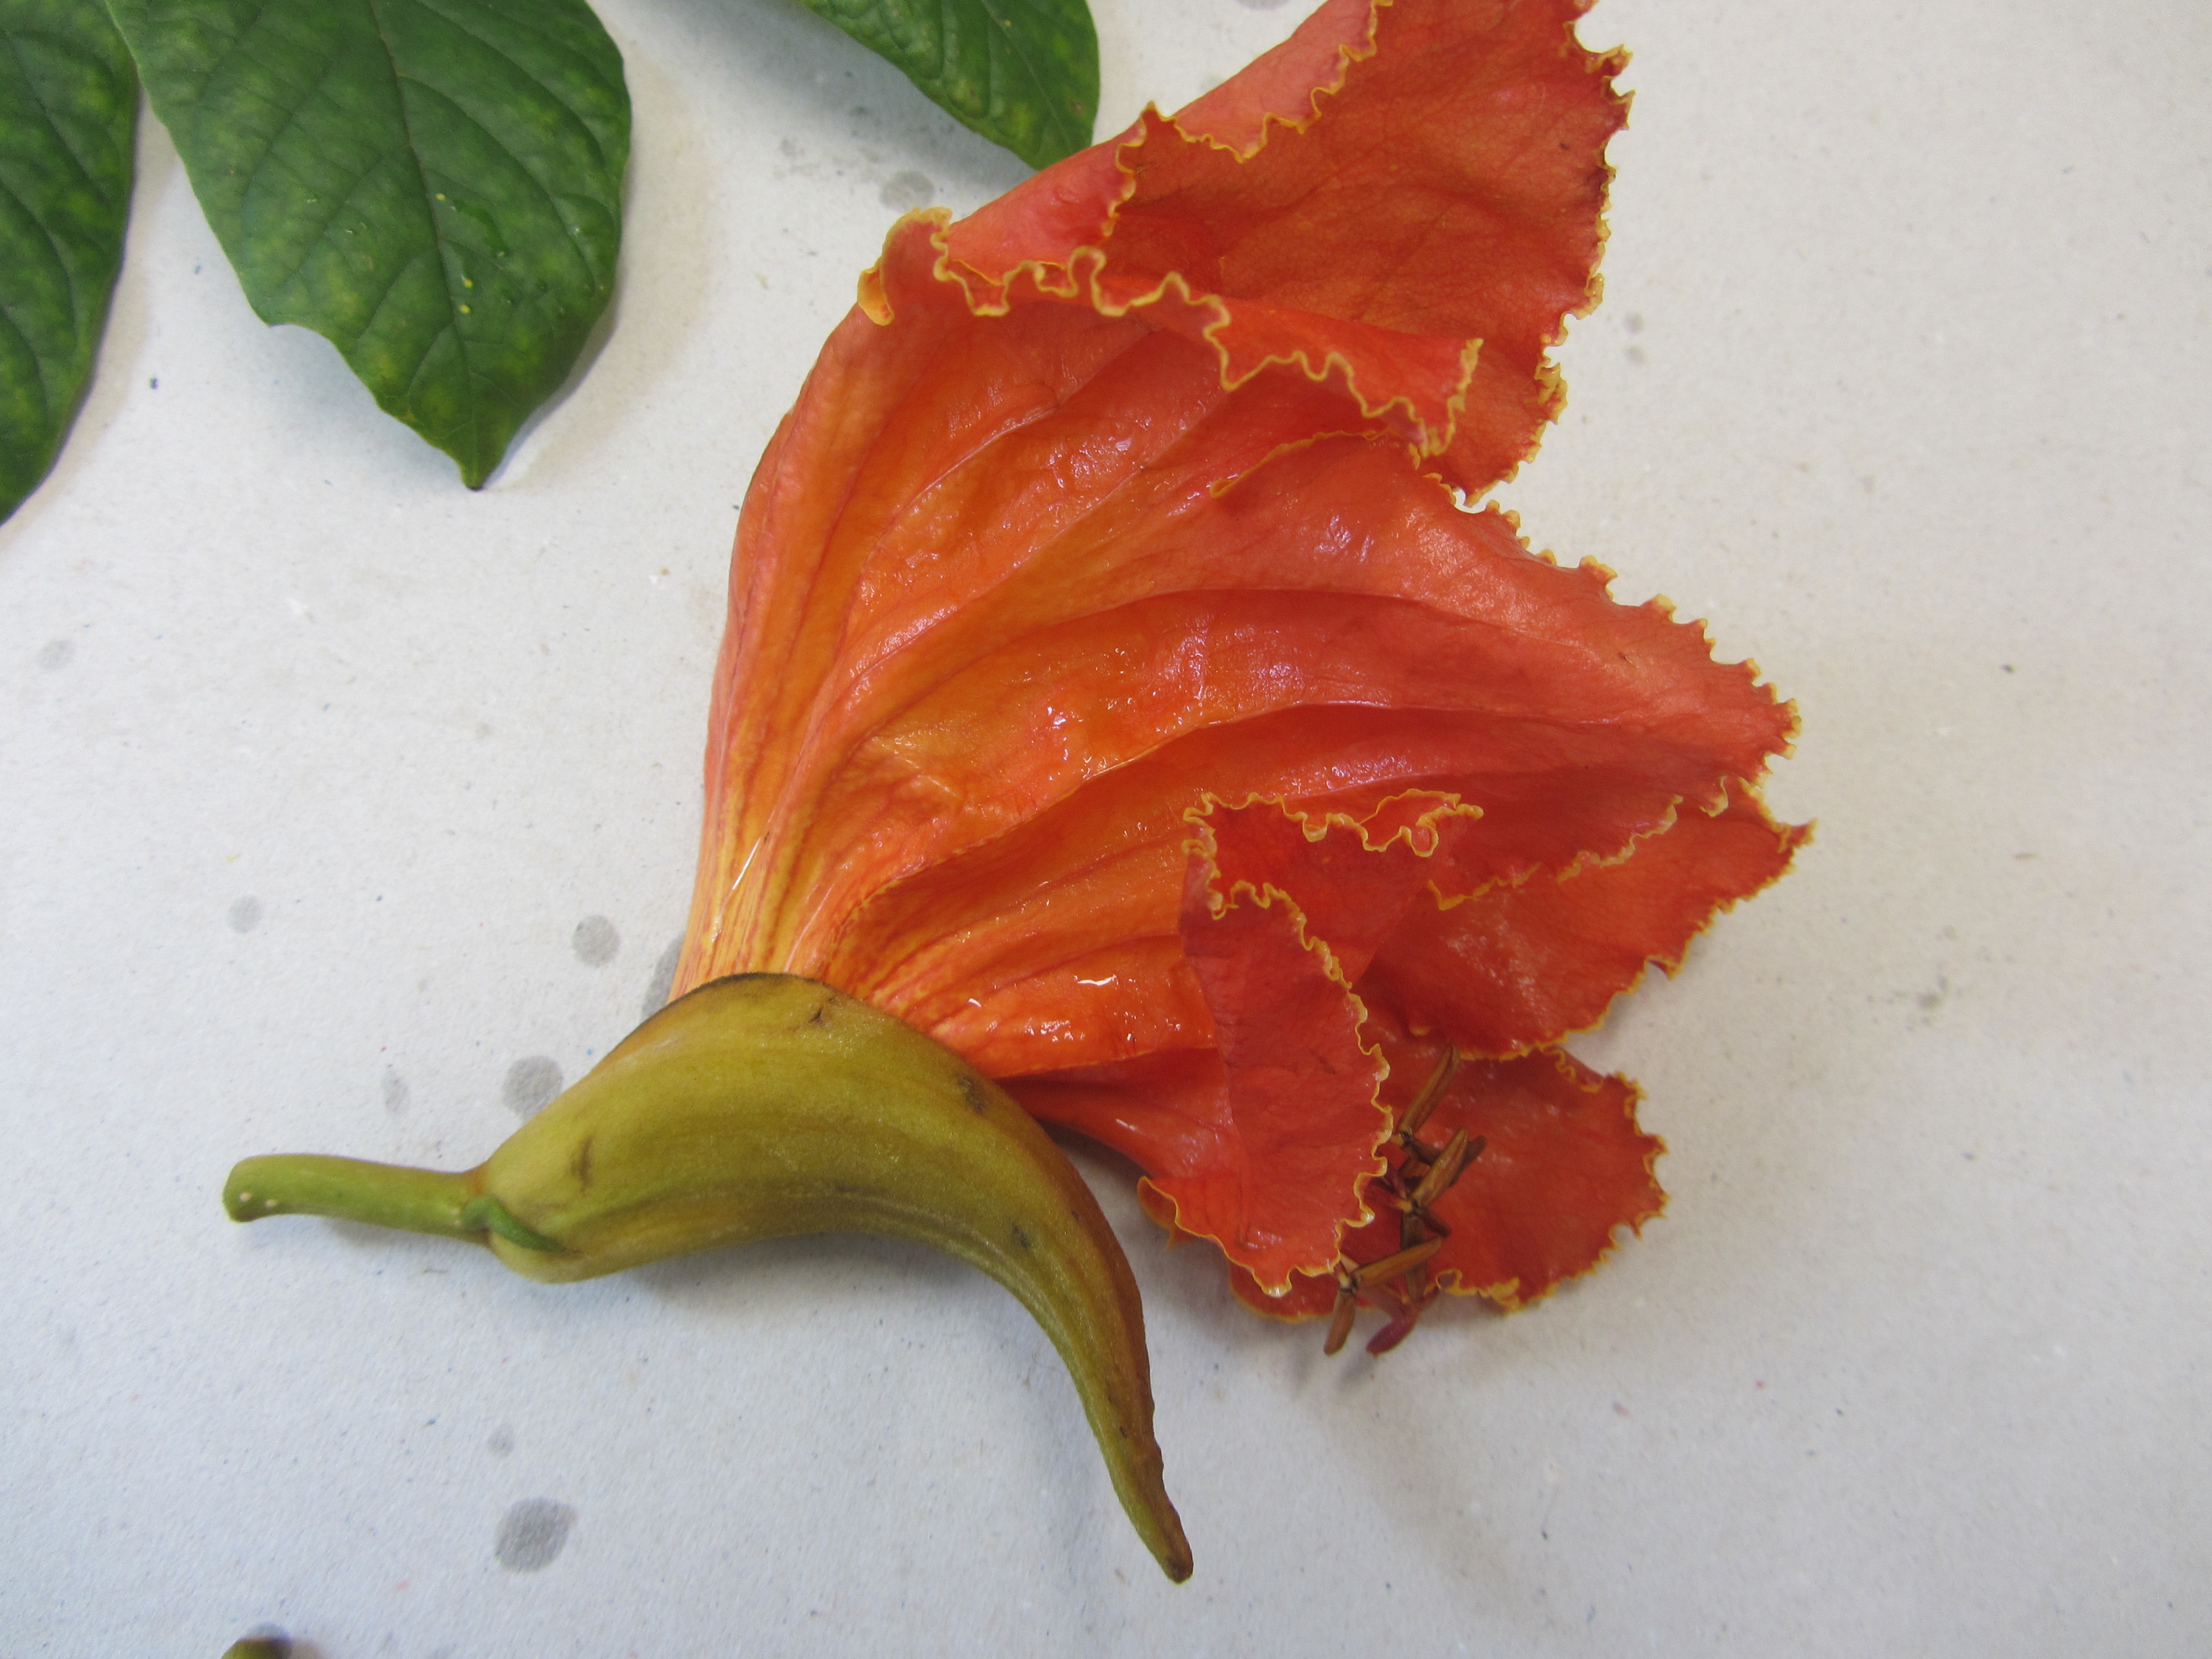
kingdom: Plantae
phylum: Tracheophyta
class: Magnoliopsida
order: Lamiales
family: Bignoniaceae
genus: Spathodea
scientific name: Spathodea campanulata
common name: African tuliptree
